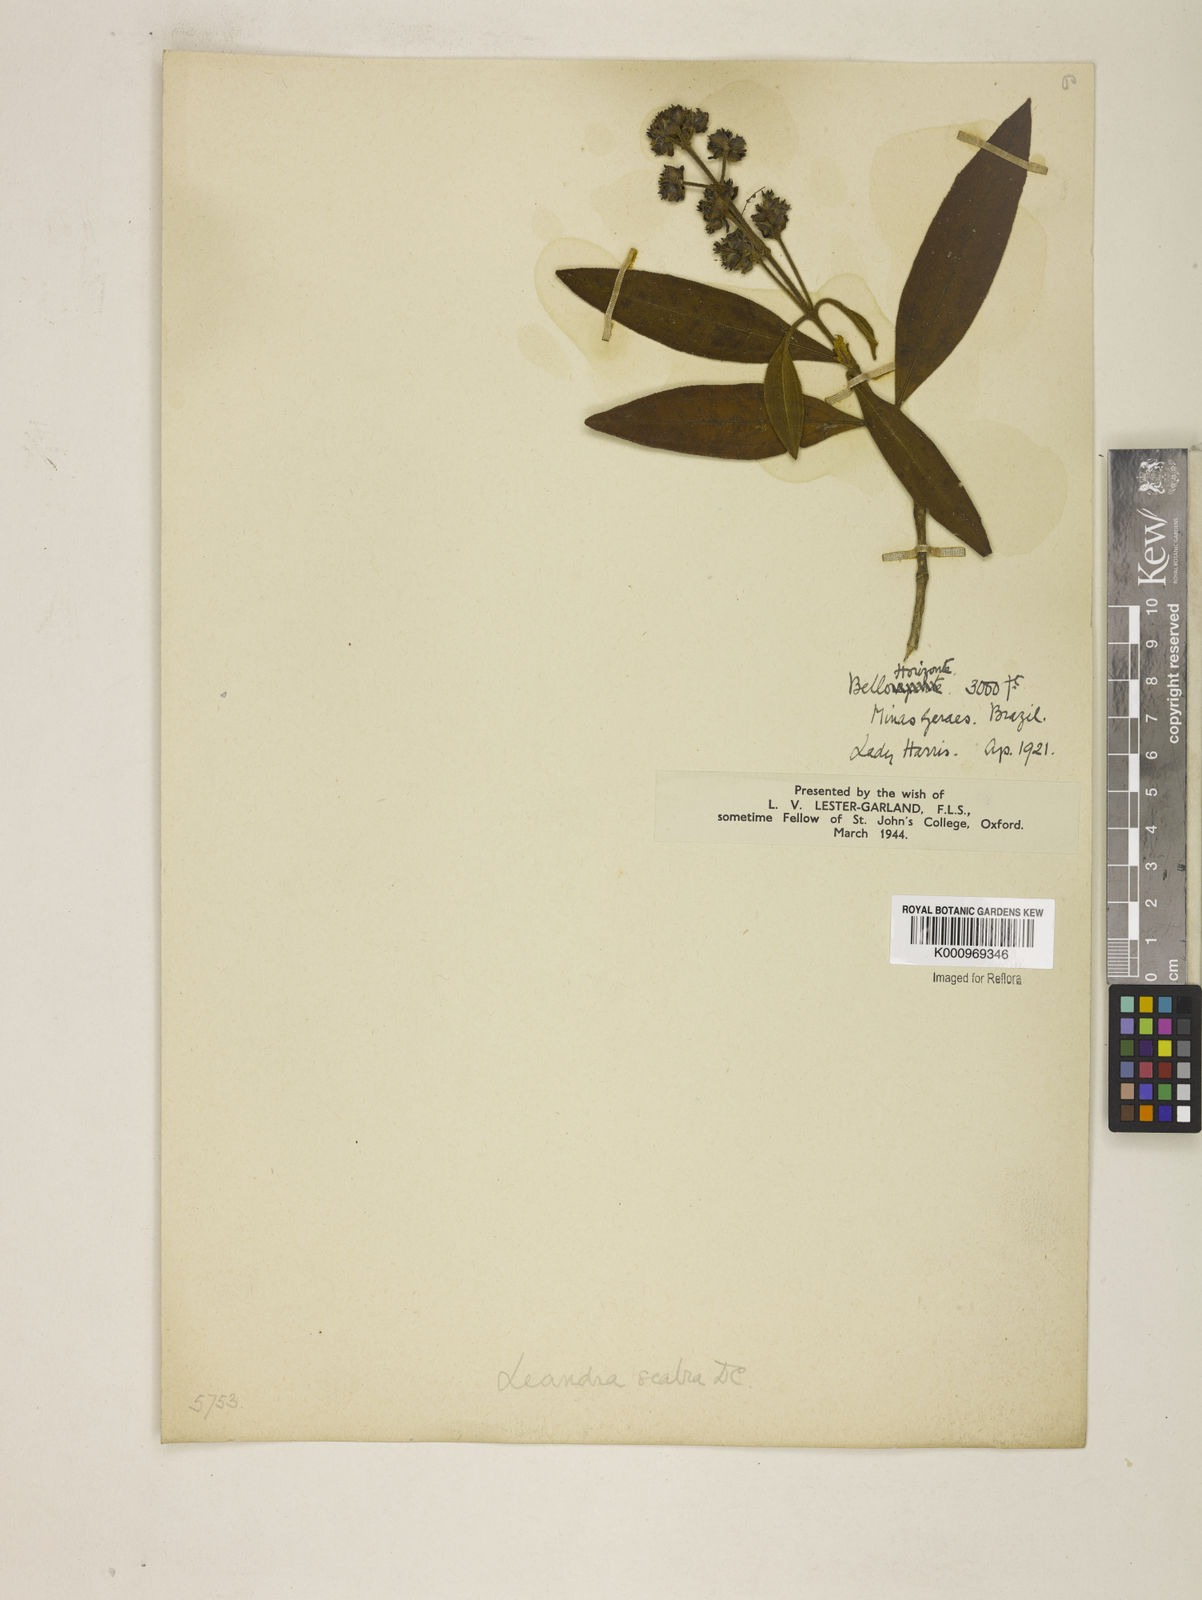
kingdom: Plantae
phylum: Tracheophyta
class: Magnoliopsida
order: Myrtales
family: Melastomataceae
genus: Miconia
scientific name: Miconia melastomoides
